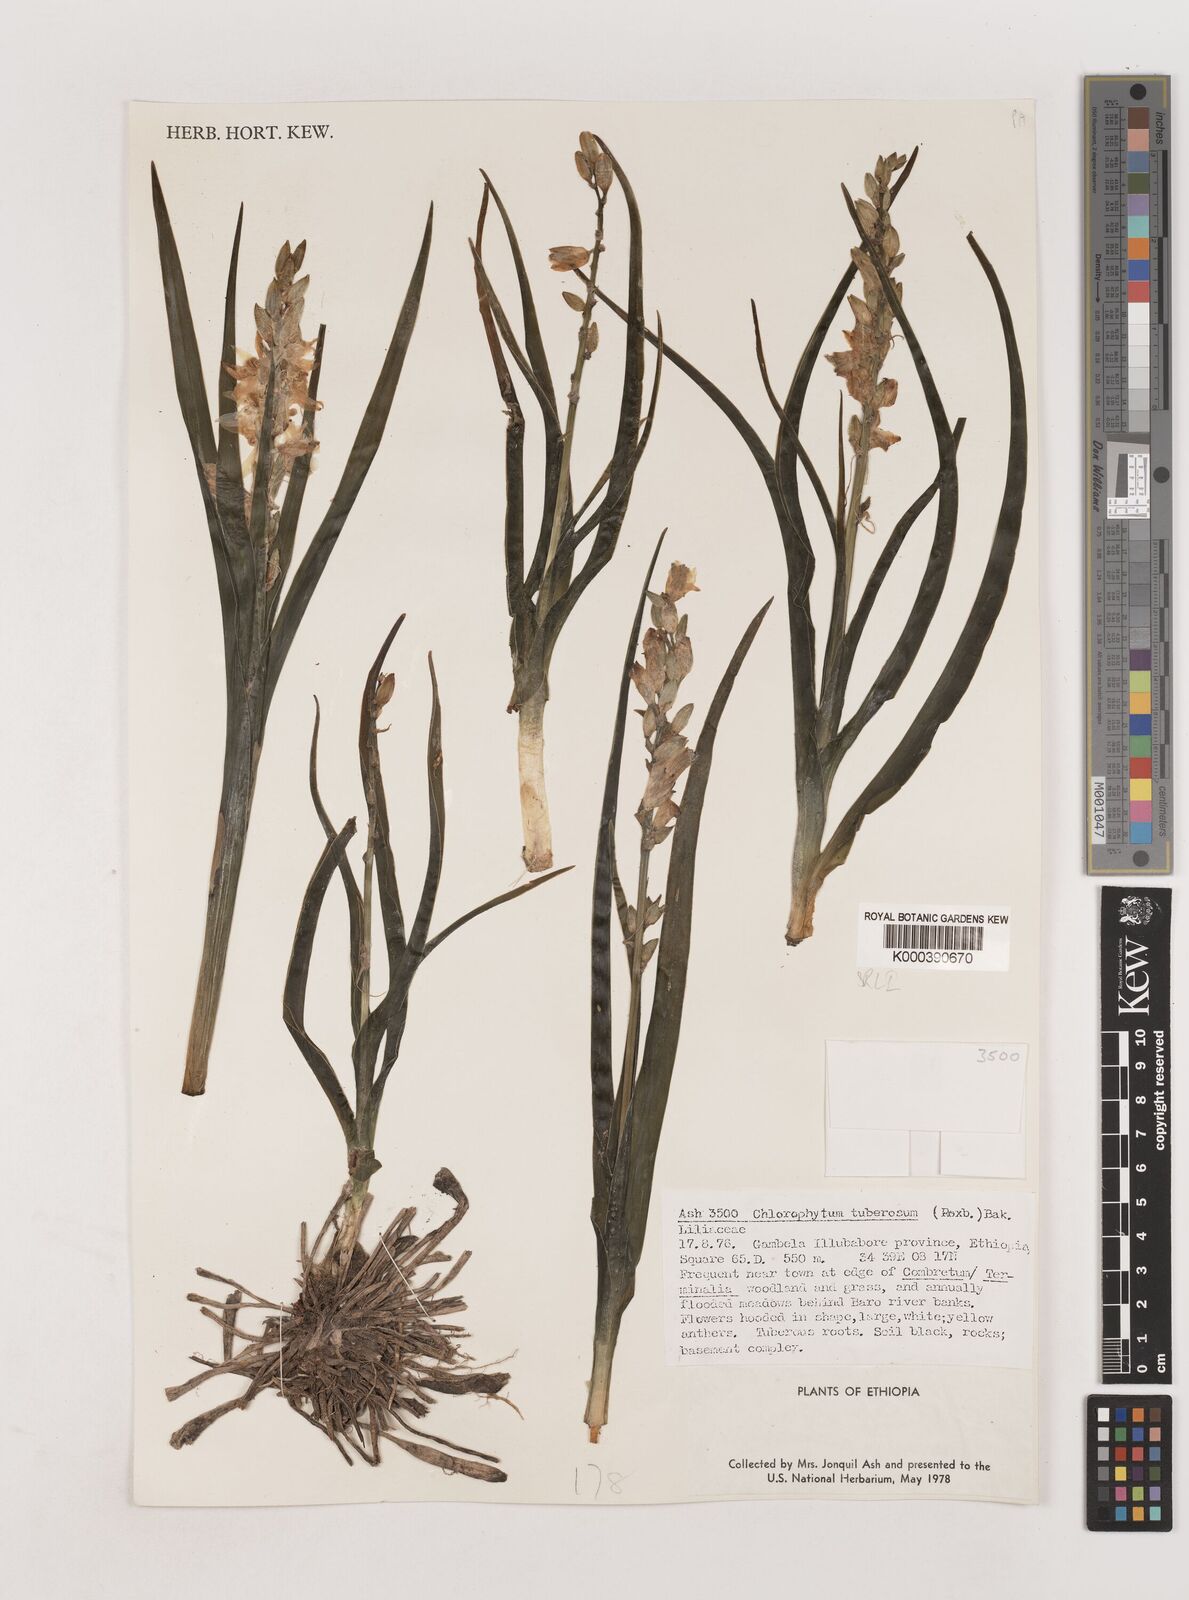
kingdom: Plantae
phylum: Tracheophyta
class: Liliopsida
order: Asparagales
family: Asparagaceae
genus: Chlorophytum
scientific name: Chlorophytum tuberosum
